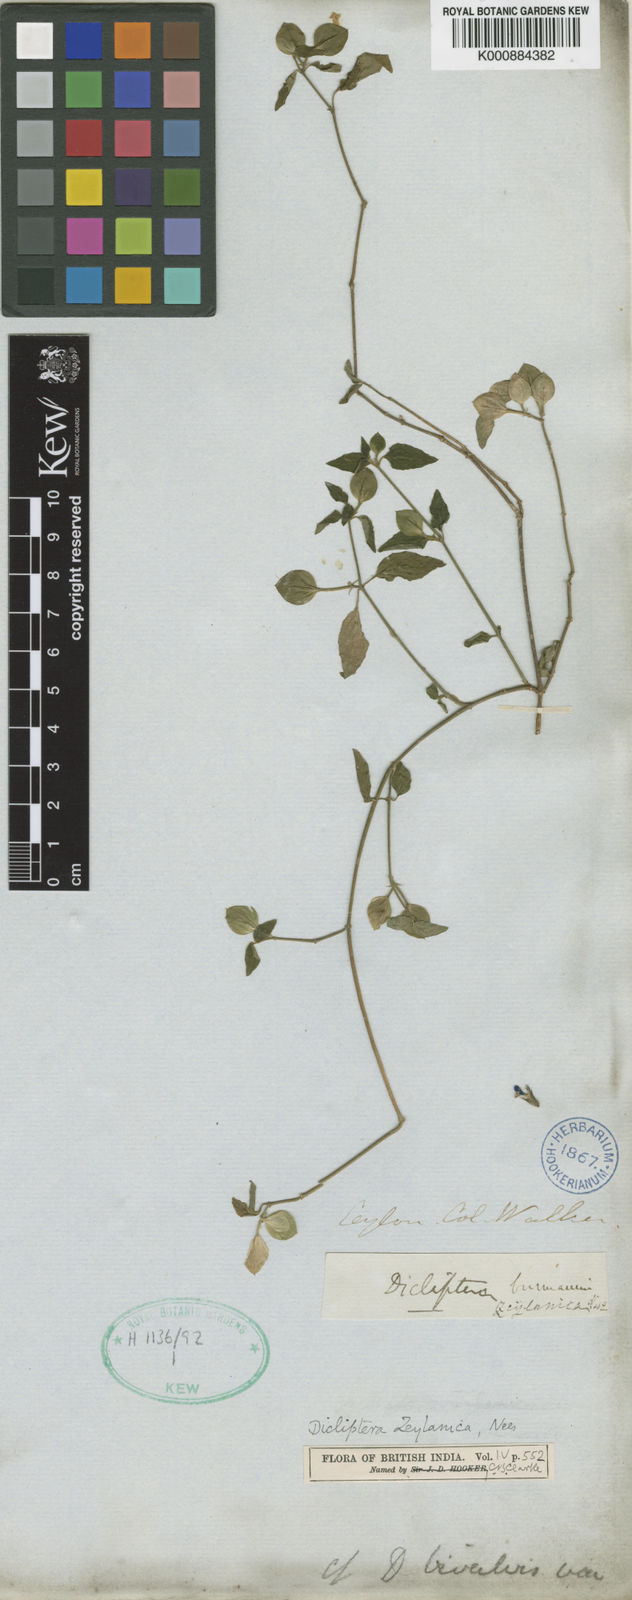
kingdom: Plantae
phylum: Tracheophyta
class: Magnoliopsida
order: Lamiales
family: Acanthaceae
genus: Dicliptera
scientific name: Dicliptera foetida
